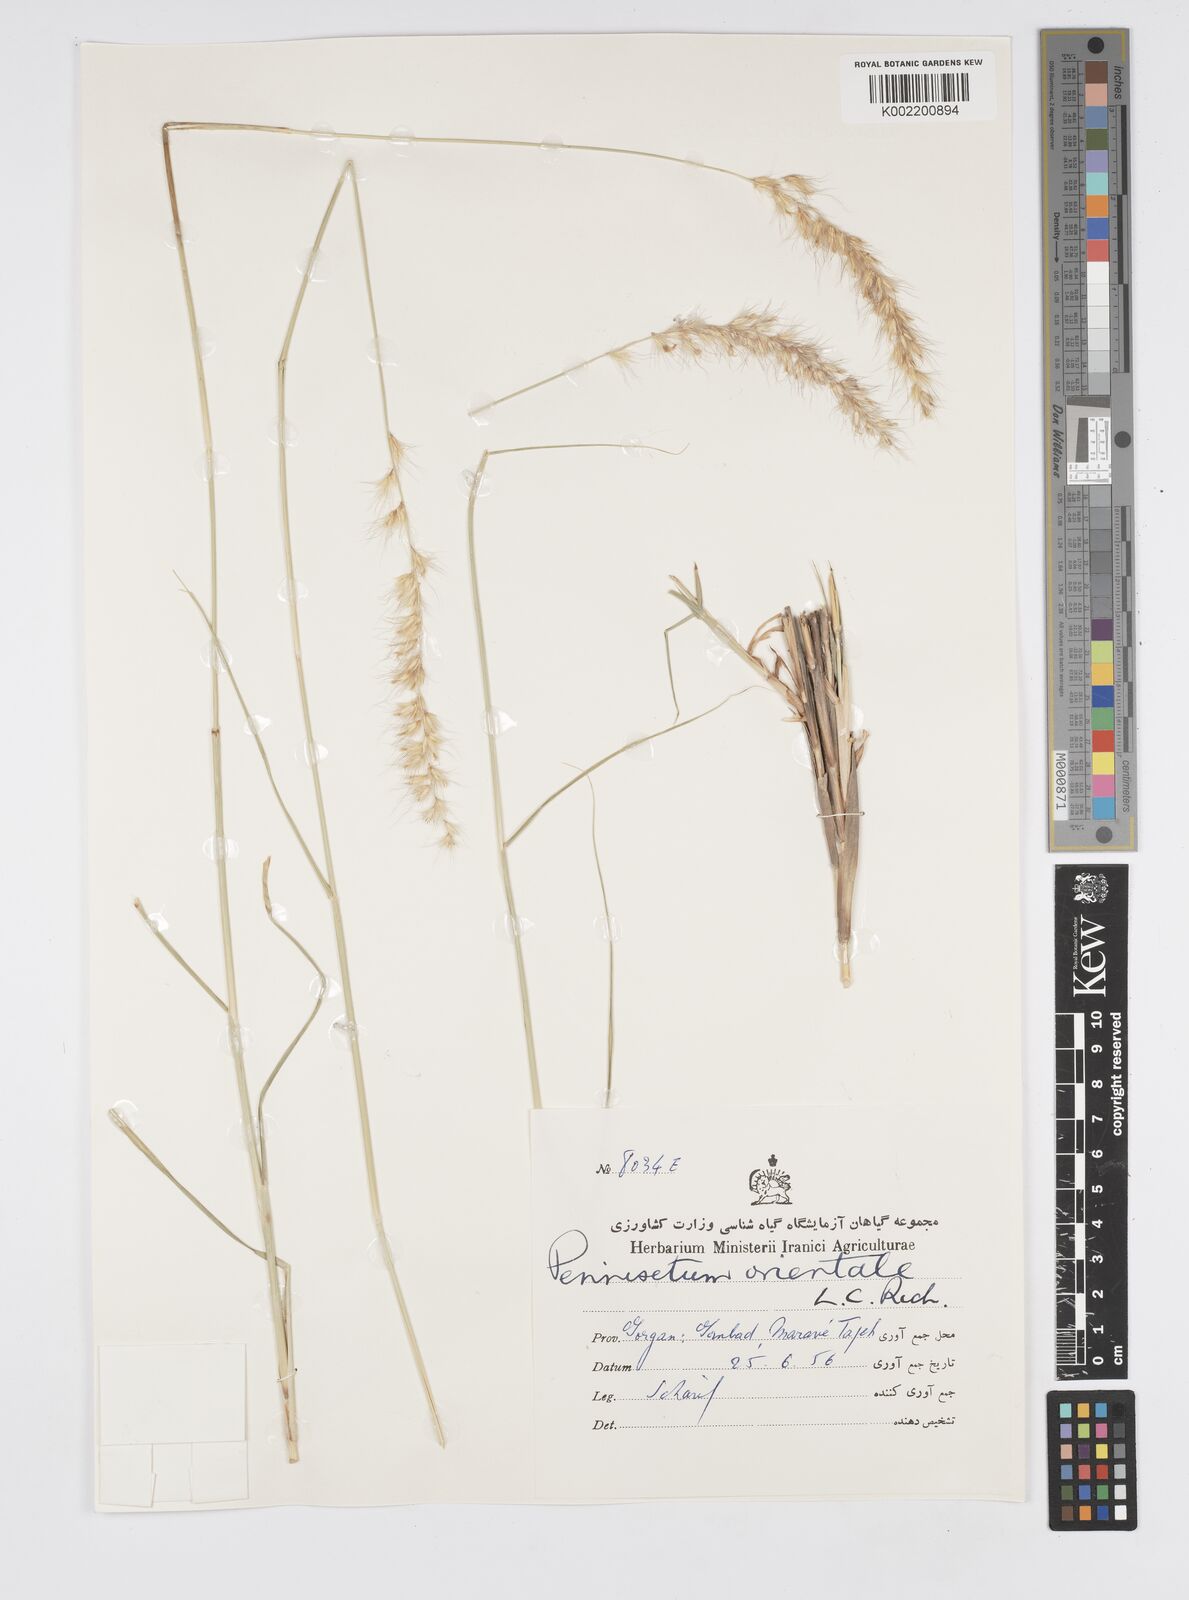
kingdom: Plantae
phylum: Tracheophyta
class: Liliopsida
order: Poales
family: Poaceae
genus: Cenchrus
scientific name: Cenchrus orientalis
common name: Oriental fountain grass
